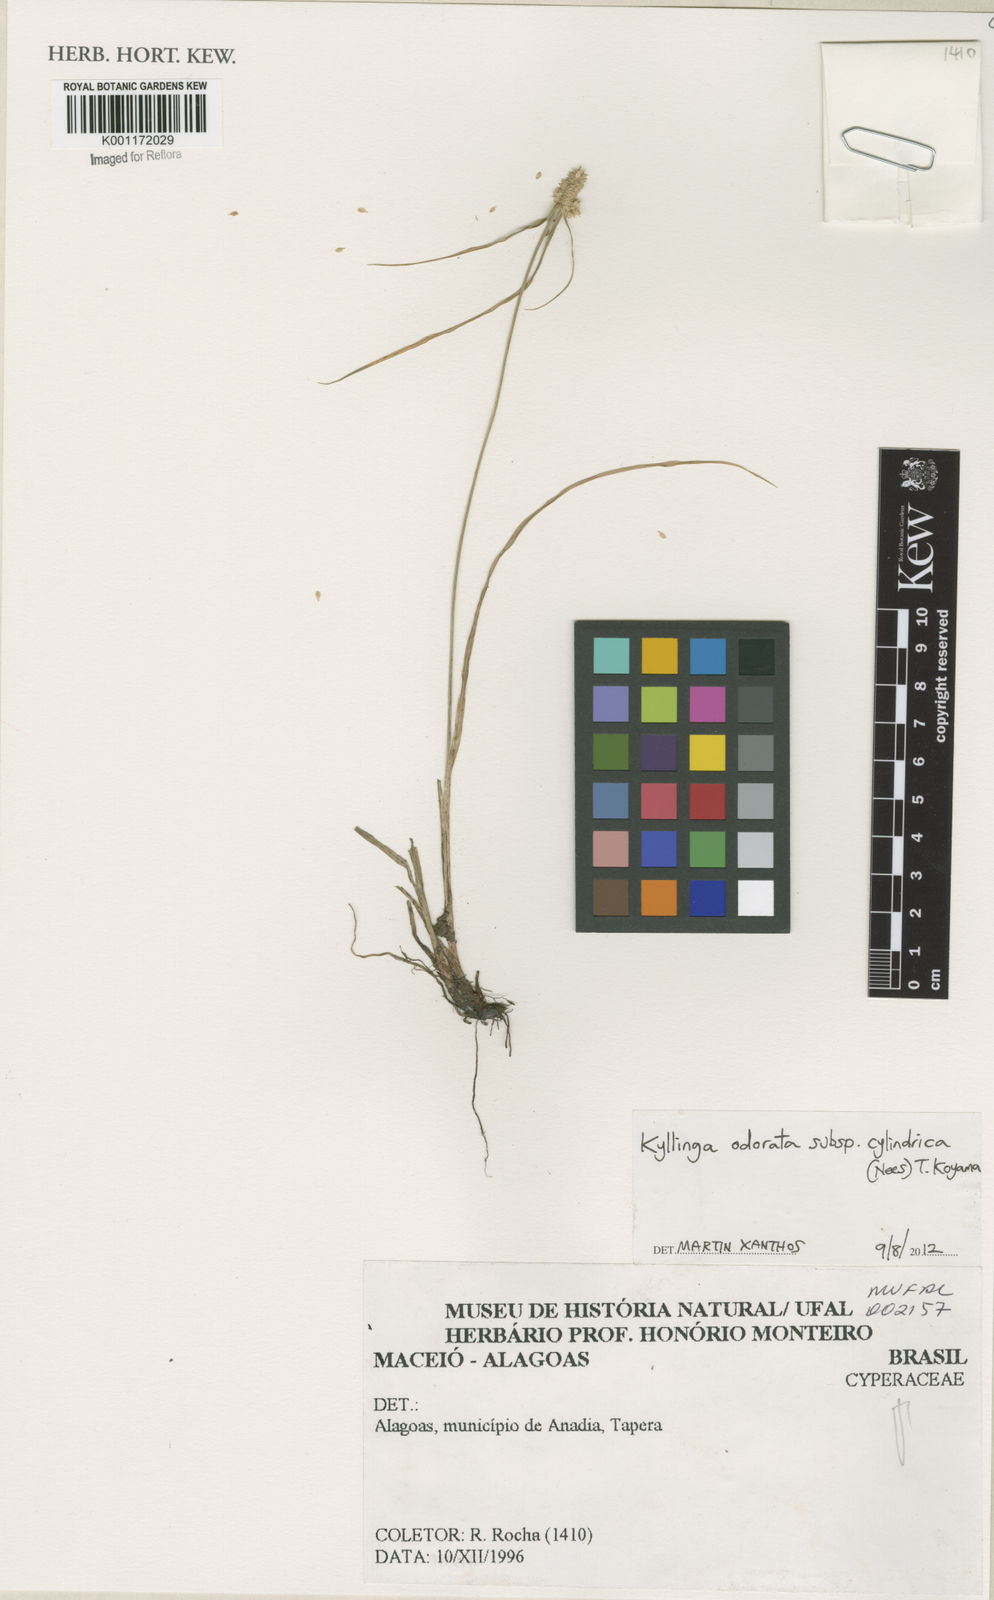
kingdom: Plantae
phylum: Tracheophyta
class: Liliopsida
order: Poales
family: Cyperaceae
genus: Cyperus
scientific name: Cyperus
